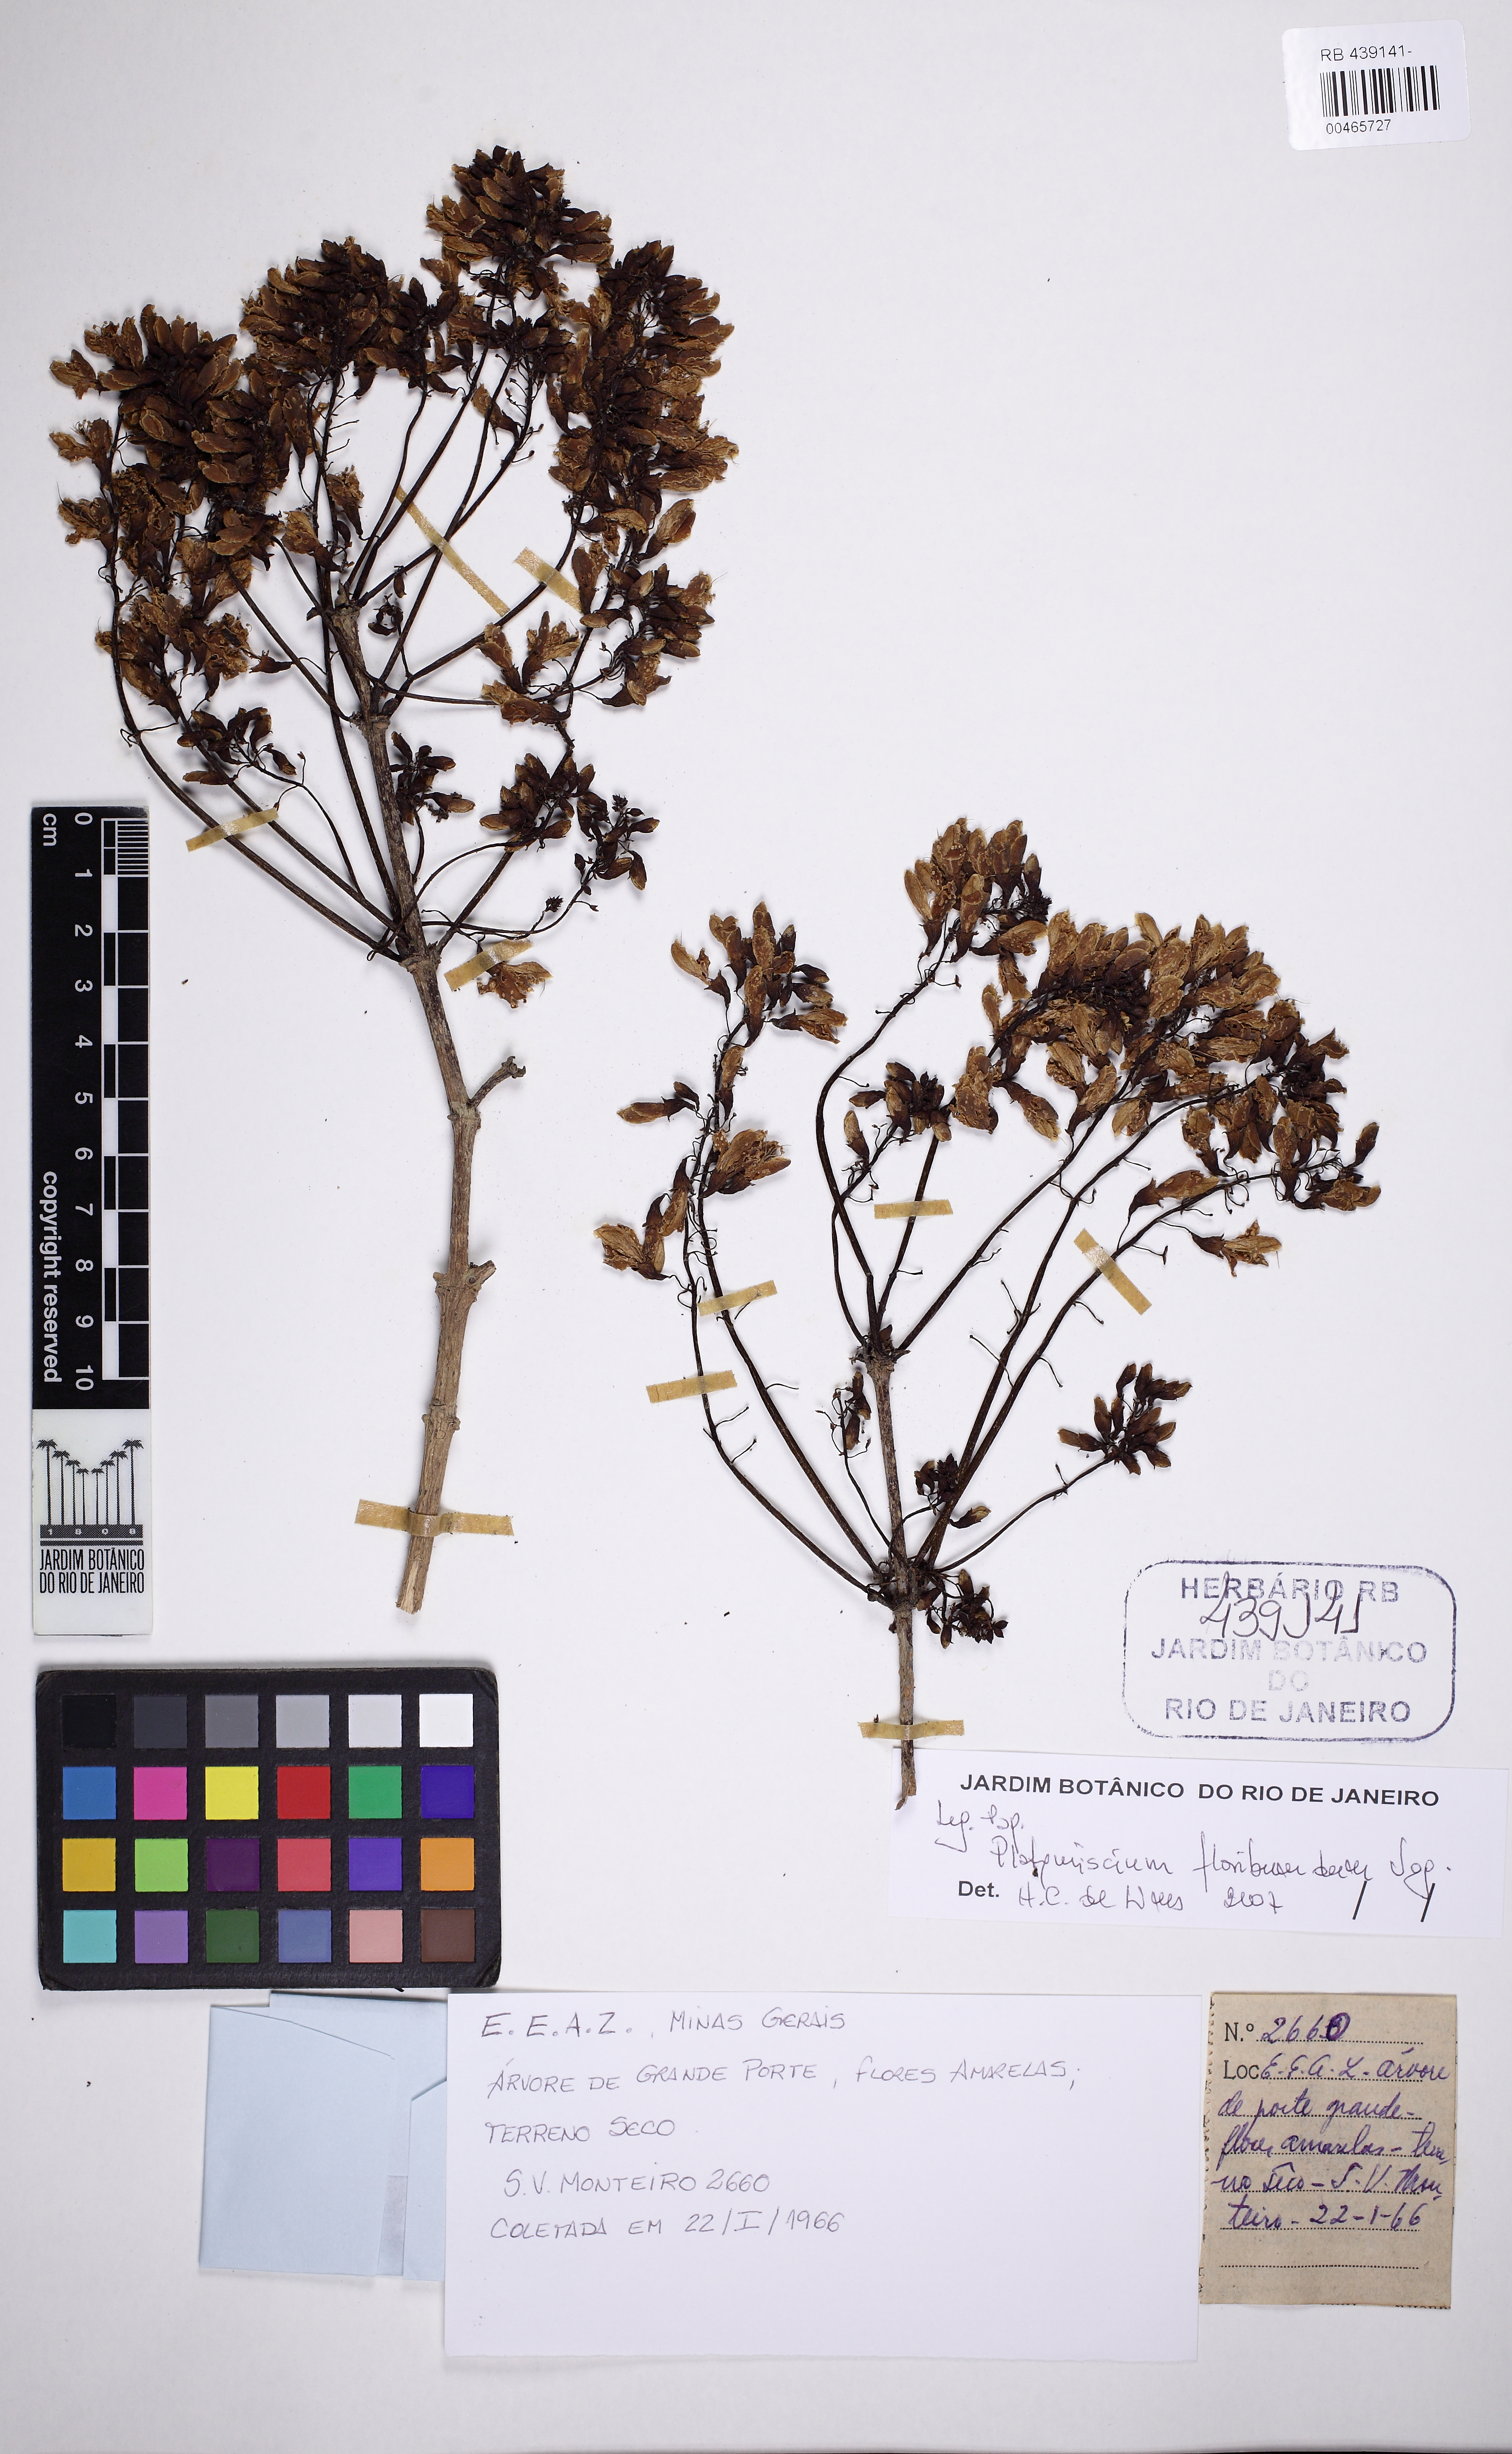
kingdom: Plantae
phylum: Tracheophyta
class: Magnoliopsida
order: Fabales
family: Fabaceae
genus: Platymiscium
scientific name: Platymiscium floribundum
